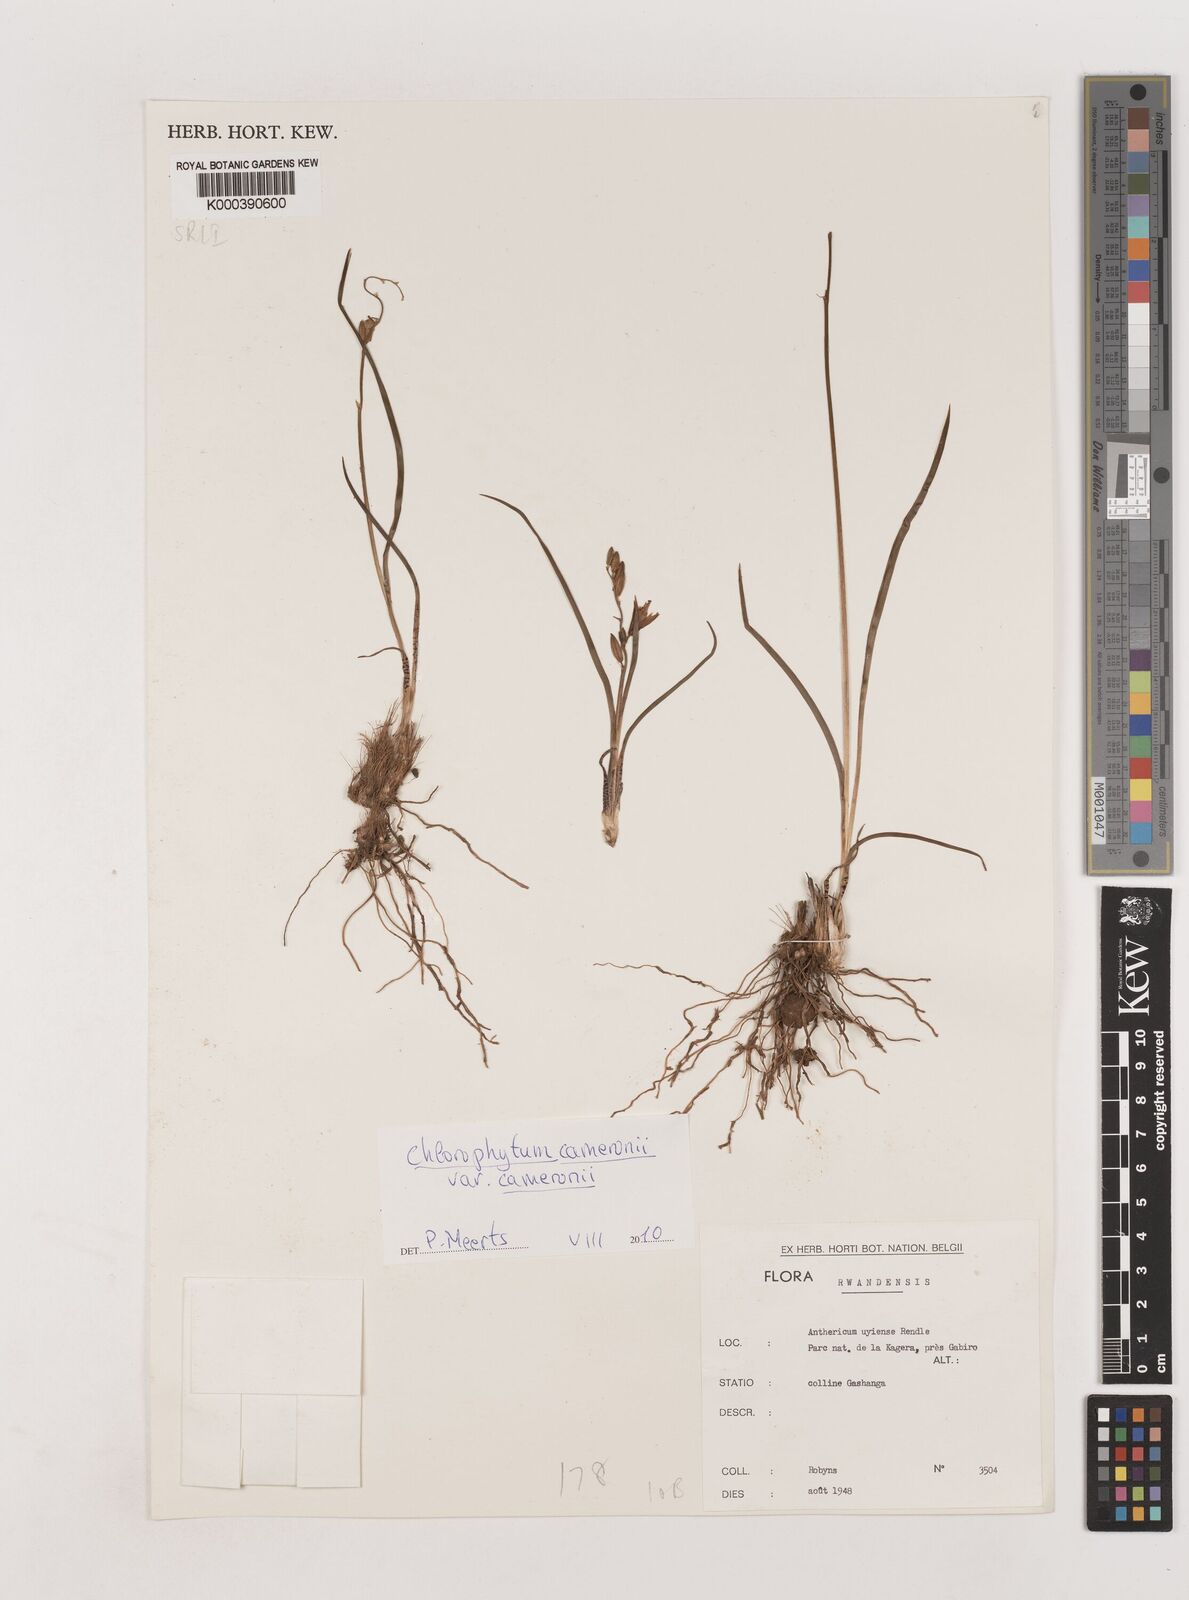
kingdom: Plantae
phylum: Tracheophyta
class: Liliopsida
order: Asparagales
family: Asparagaceae
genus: Chlorophytum
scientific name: Chlorophytum cameronii
